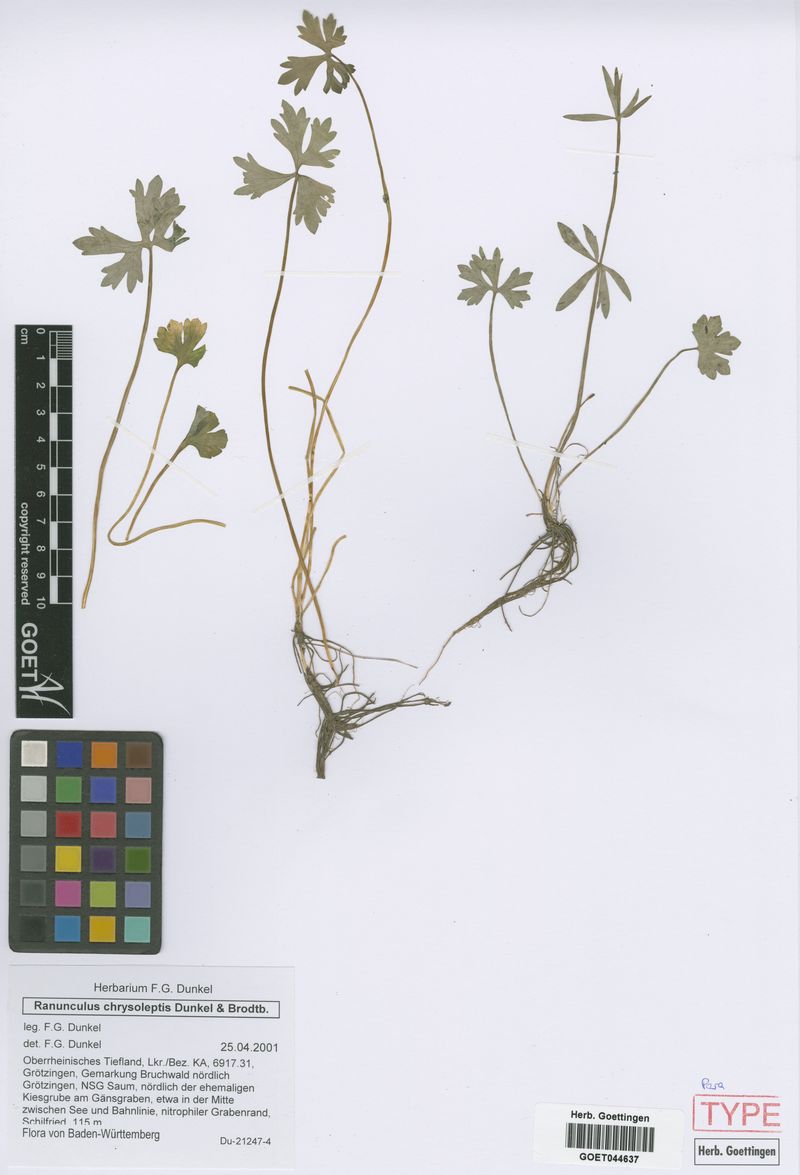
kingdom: Plantae
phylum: Tracheophyta
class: Magnoliopsida
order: Ranunculales
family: Ranunculaceae
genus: Ranunculus
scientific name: Ranunculus chrysoleptos
